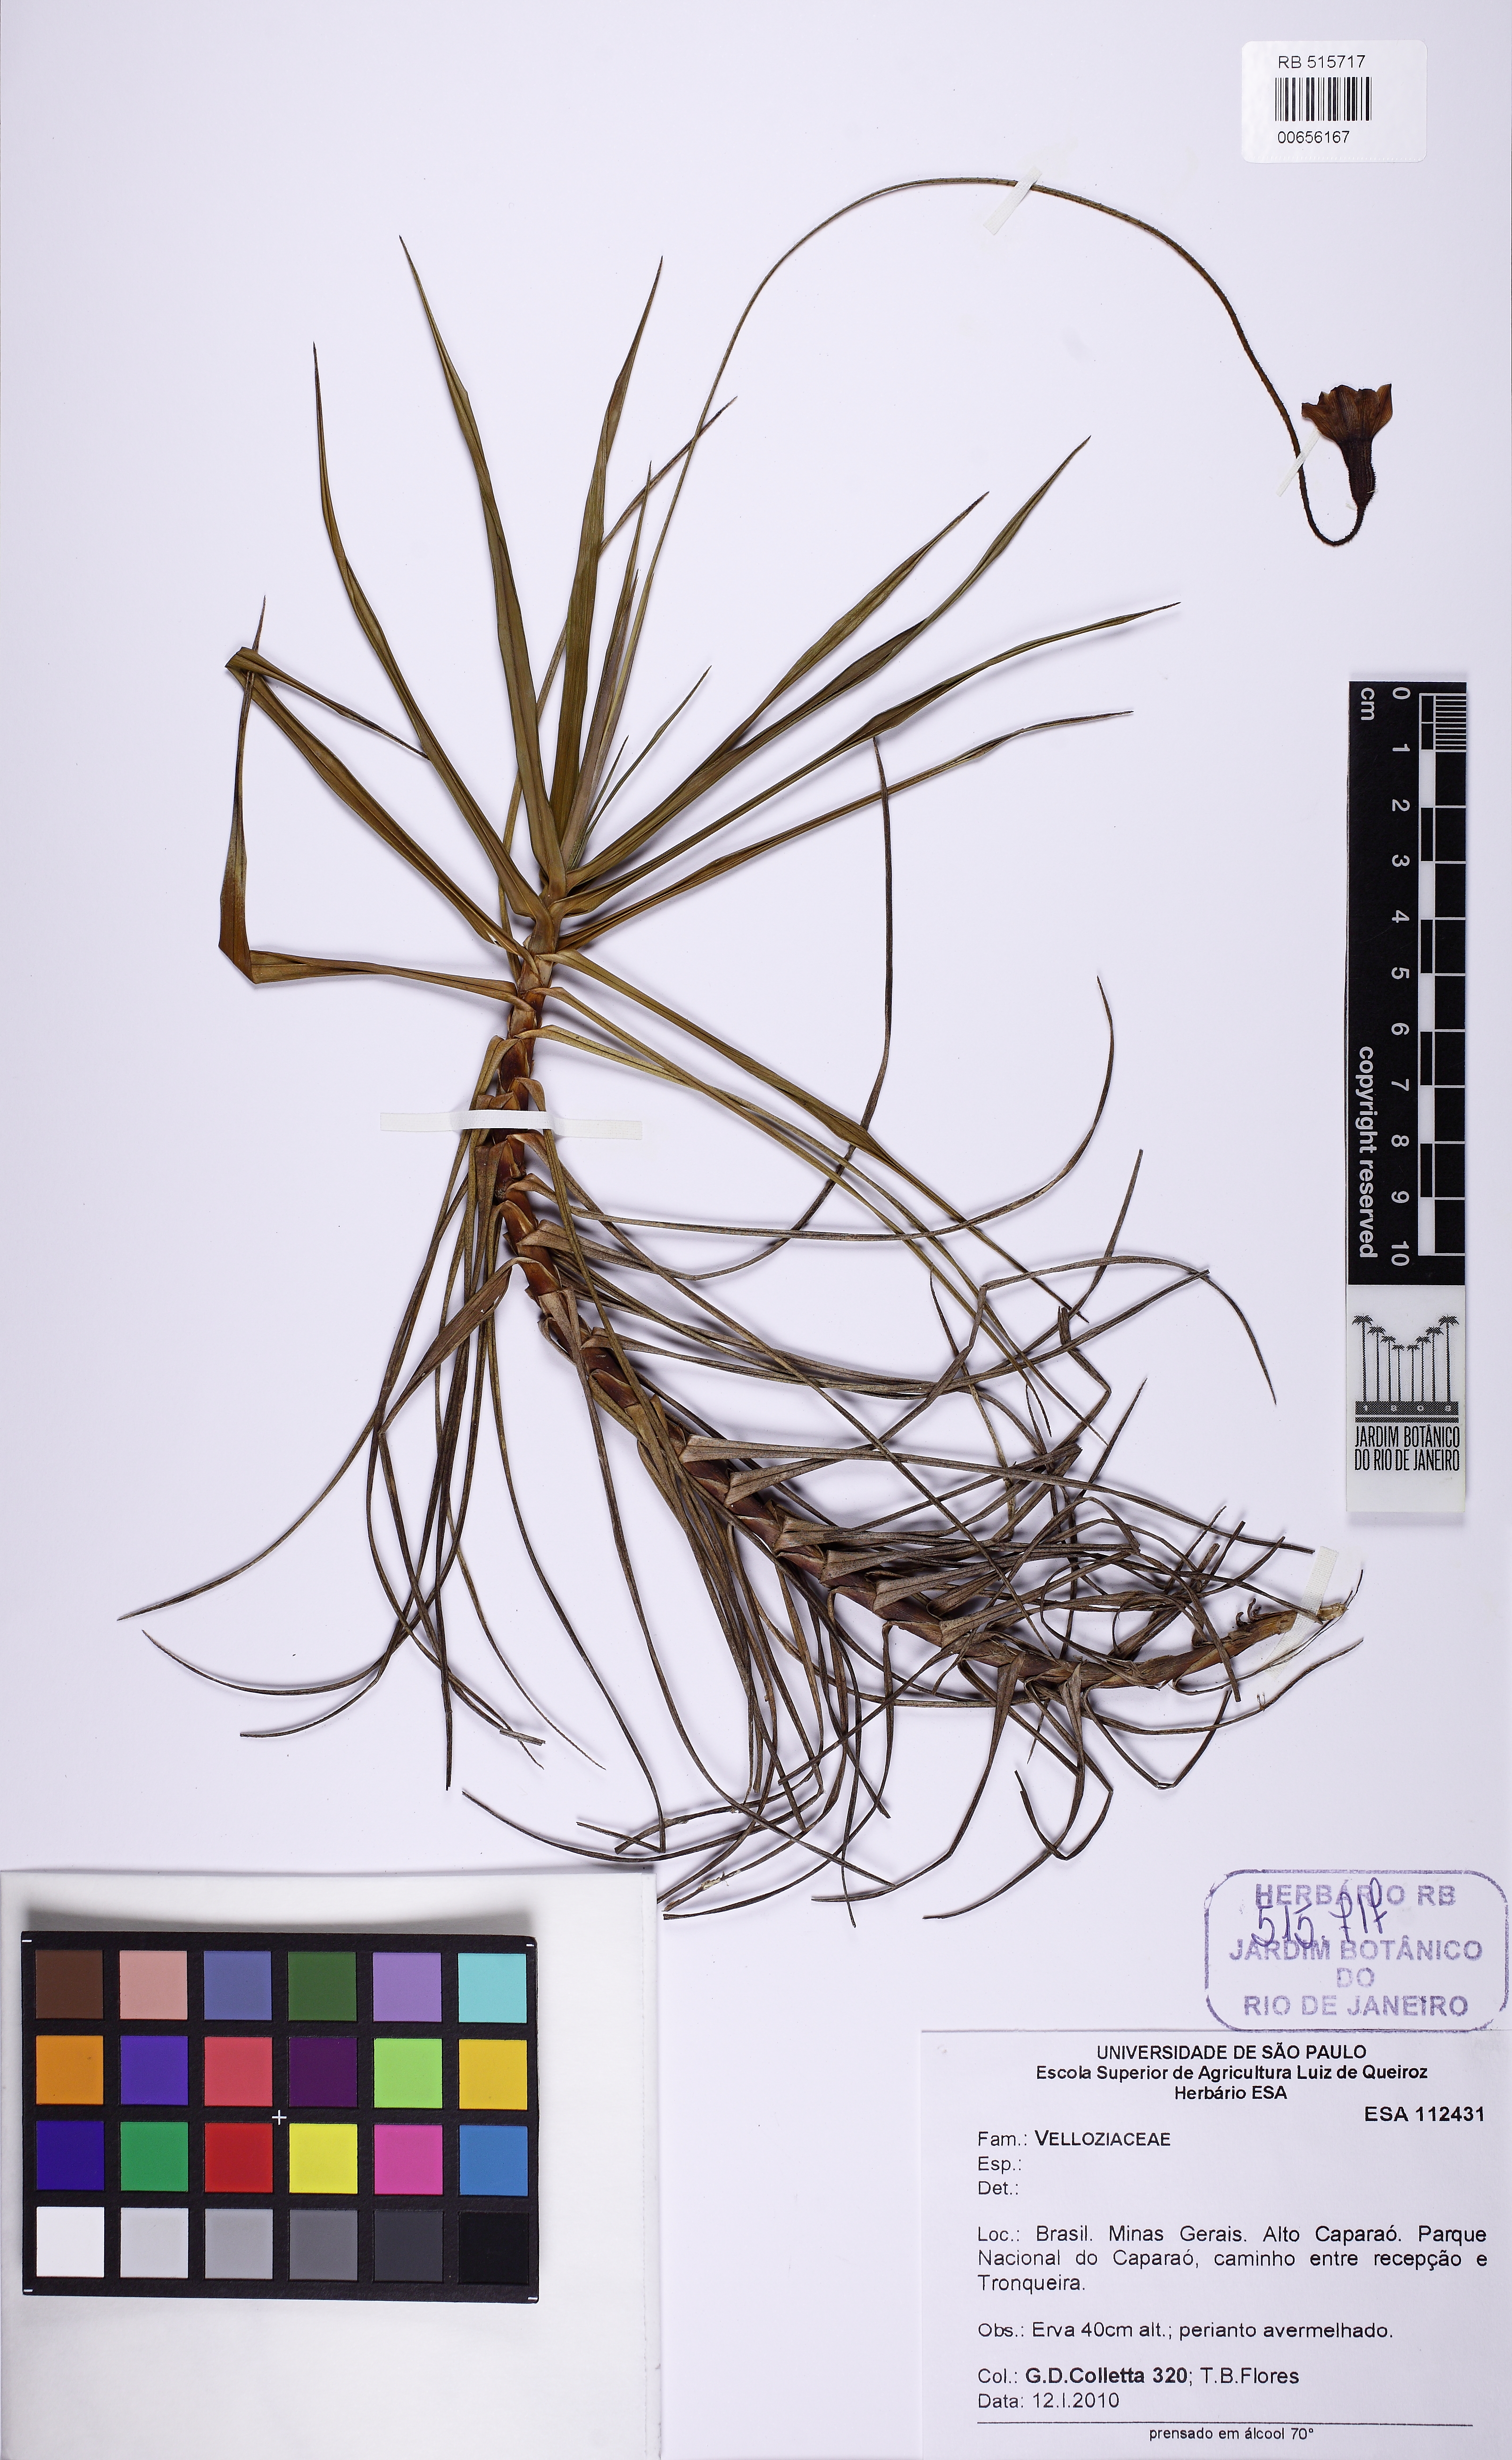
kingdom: Plantae
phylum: Tracheophyta
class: Liliopsida
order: Pandanales
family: Velloziaceae
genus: Barbacenia
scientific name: Barbacenia irwiniana
